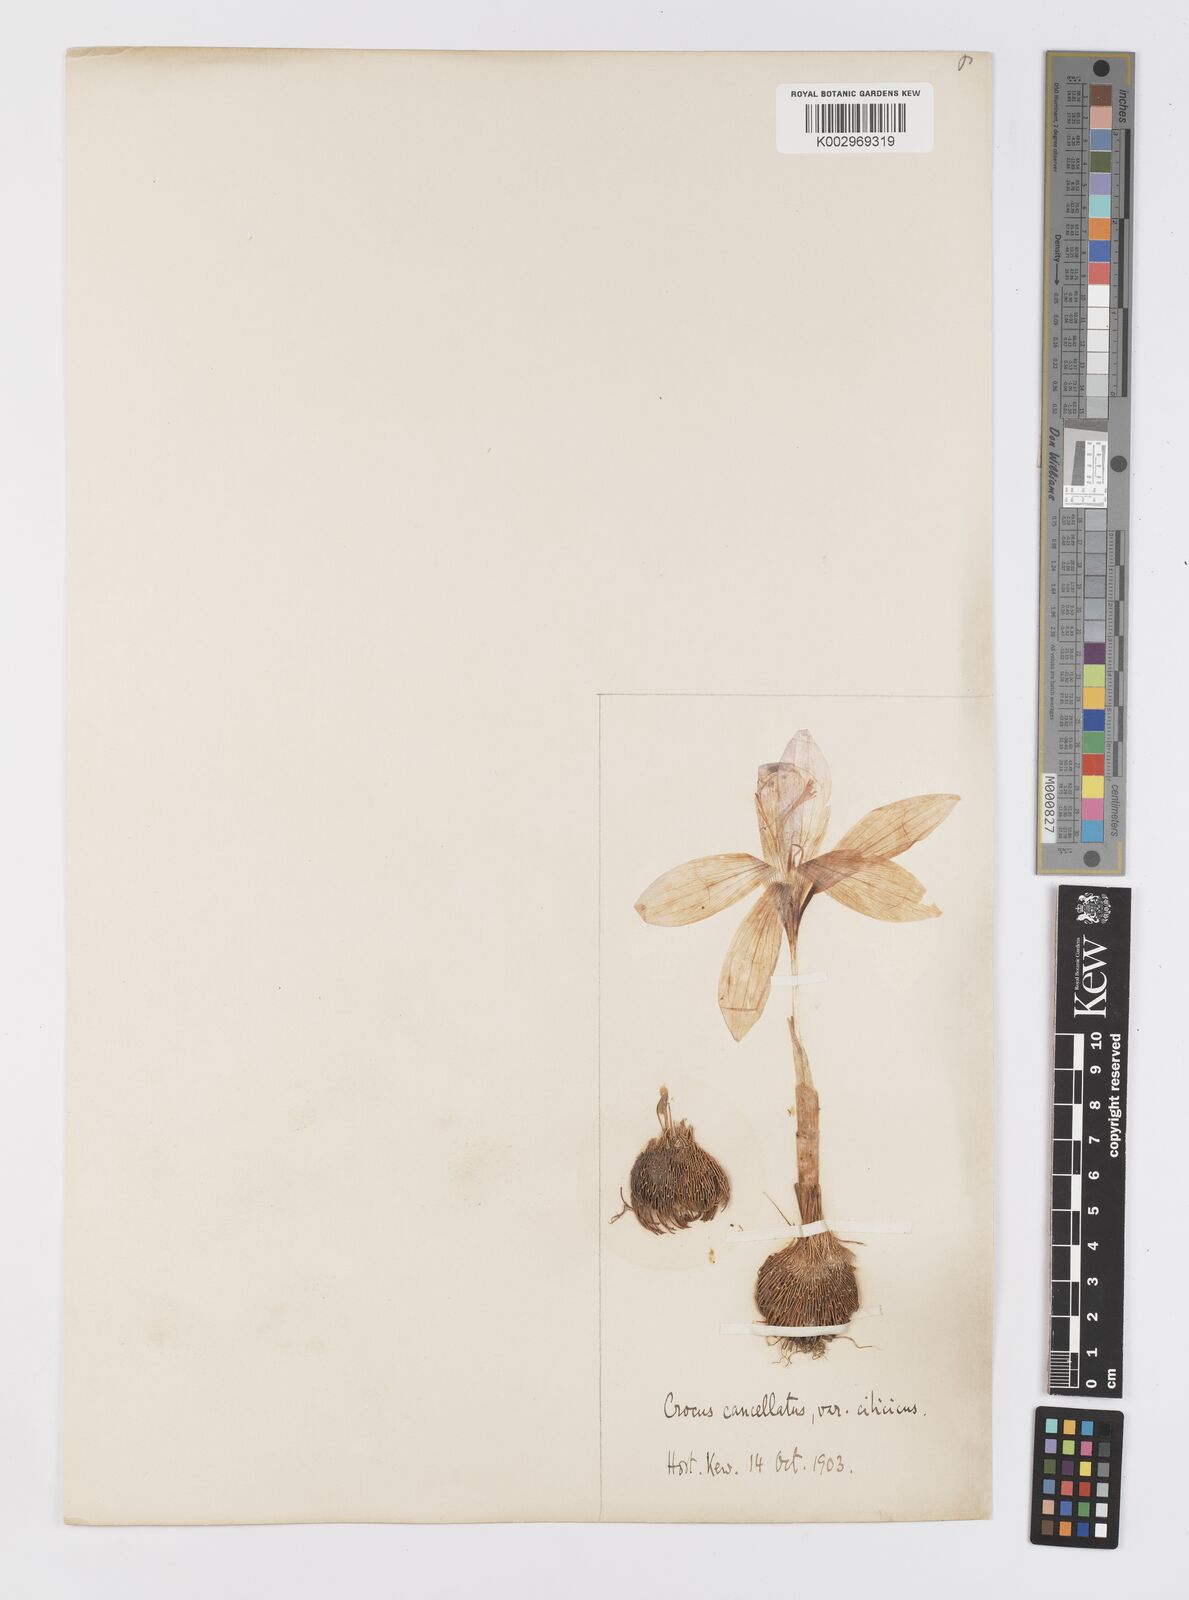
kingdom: Plantae
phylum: Tracheophyta
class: Liliopsida
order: Asparagales
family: Iridaceae
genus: Crocus
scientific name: Crocus cancellatus
